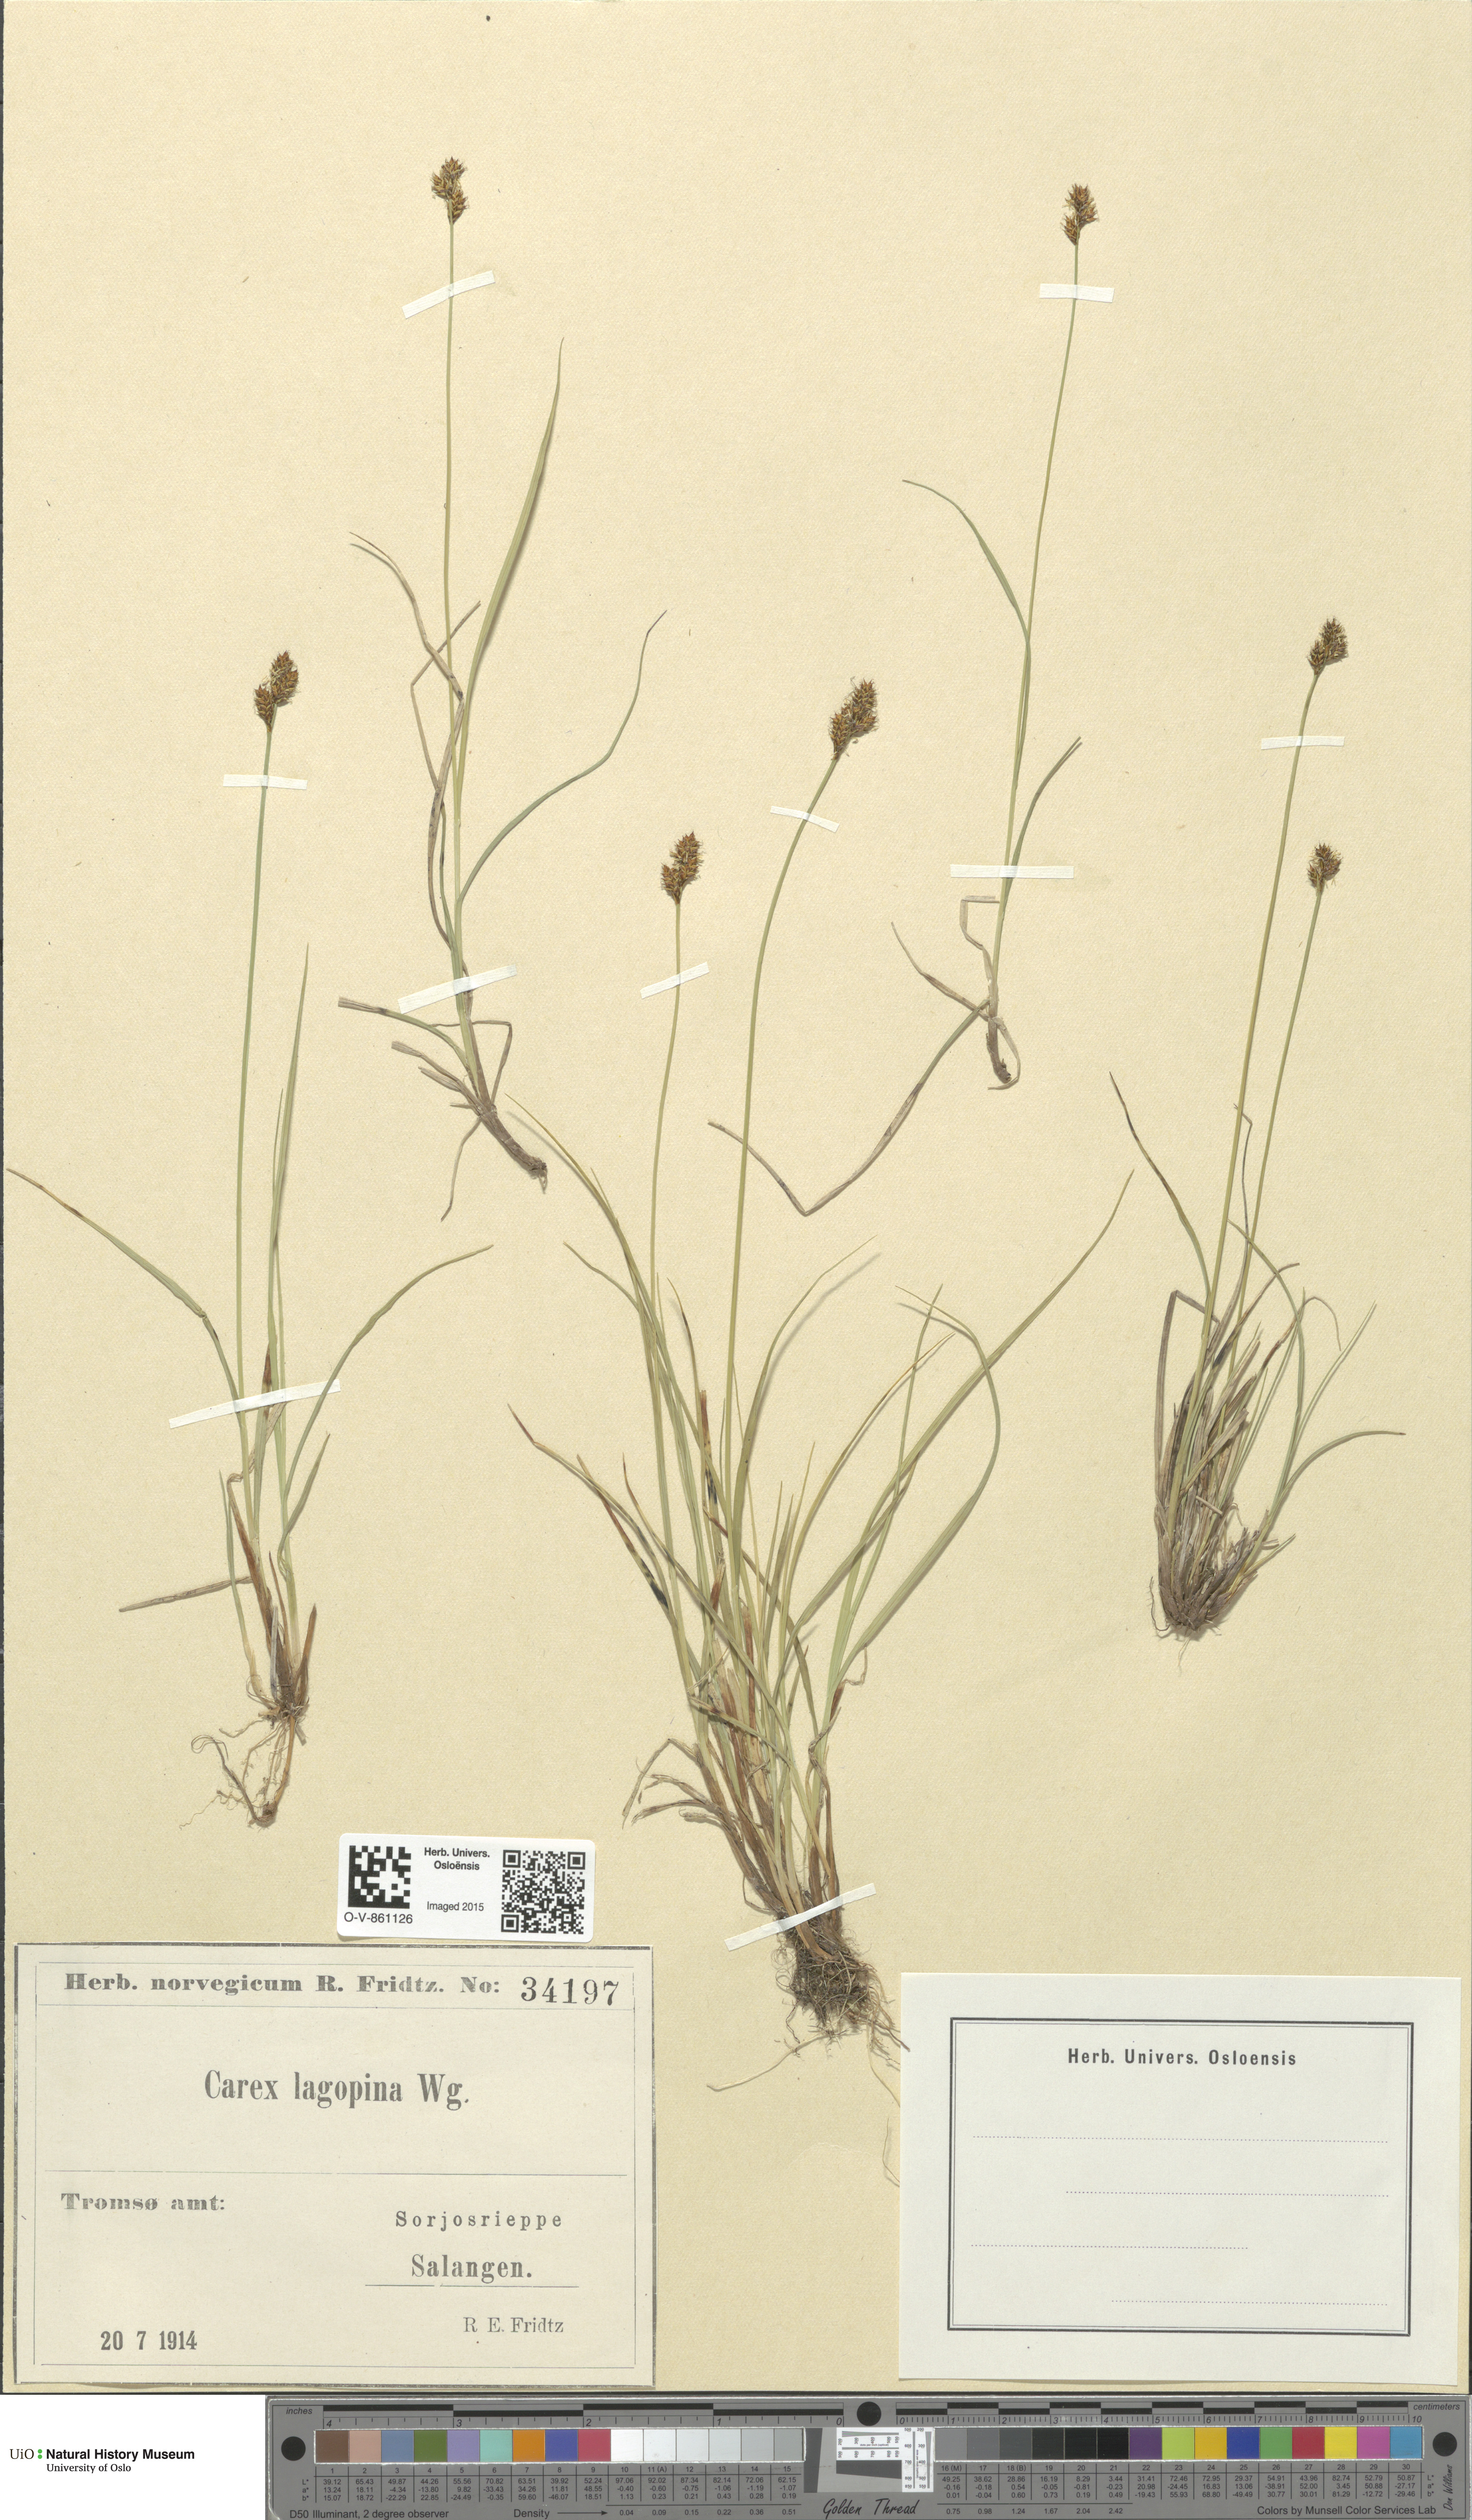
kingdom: Plantae
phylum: Tracheophyta
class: Liliopsida
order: Poales
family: Cyperaceae
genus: Carex
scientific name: Carex lachenalii
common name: Hare's-foot sedge
